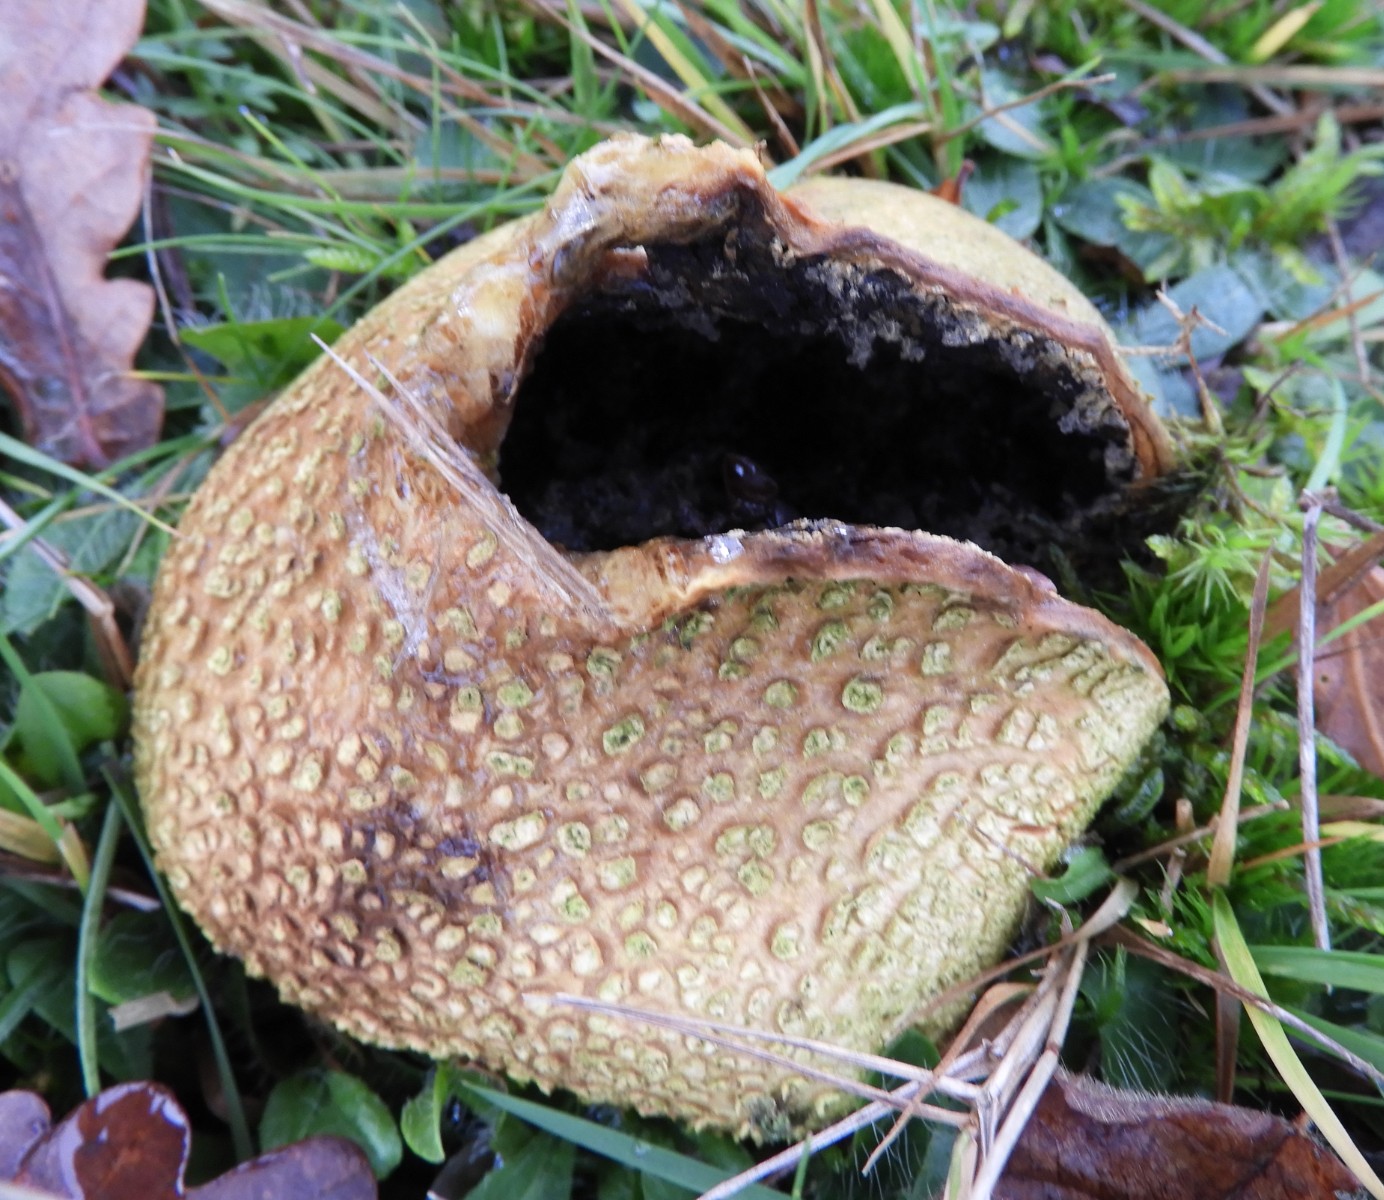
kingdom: Fungi
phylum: Basidiomycota
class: Agaricomycetes
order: Boletales
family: Sclerodermataceae
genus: Scleroderma
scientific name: Scleroderma citrinum
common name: almindelig bruskbold
